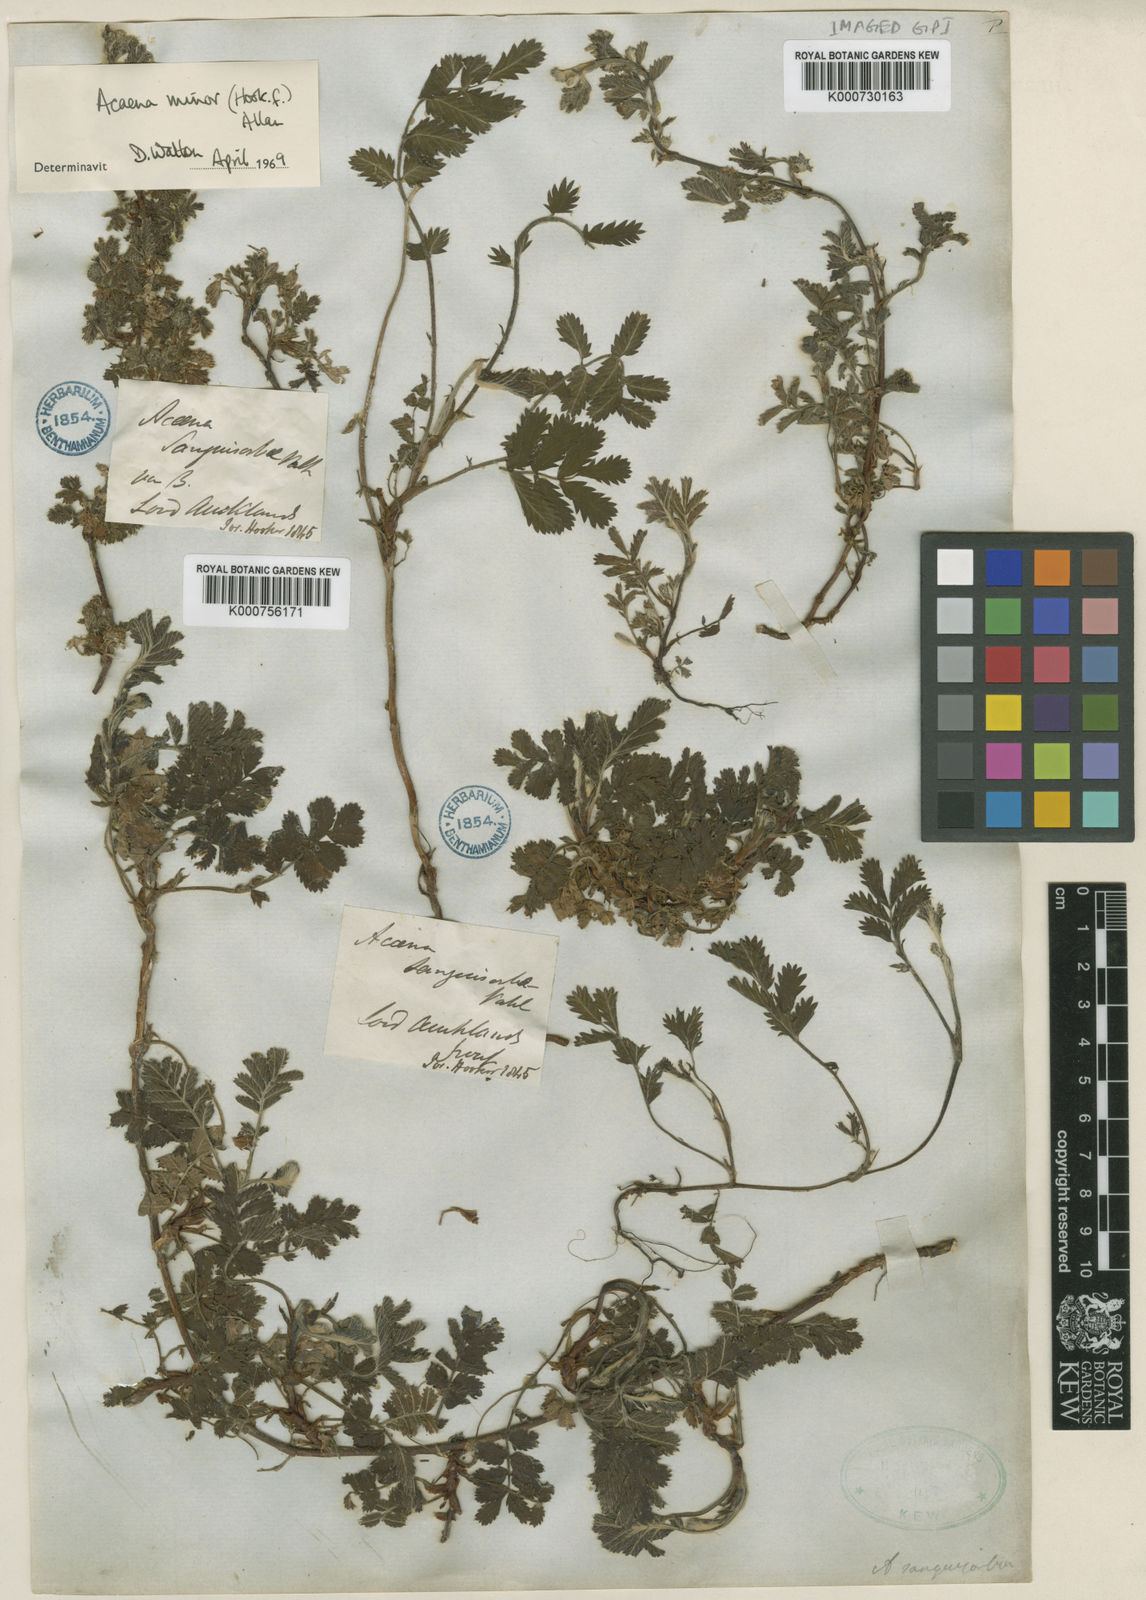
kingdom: Plantae
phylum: Tracheophyta
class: Magnoliopsida
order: Rosales
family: Rosaceae
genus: Acaena
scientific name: Acaena minor
